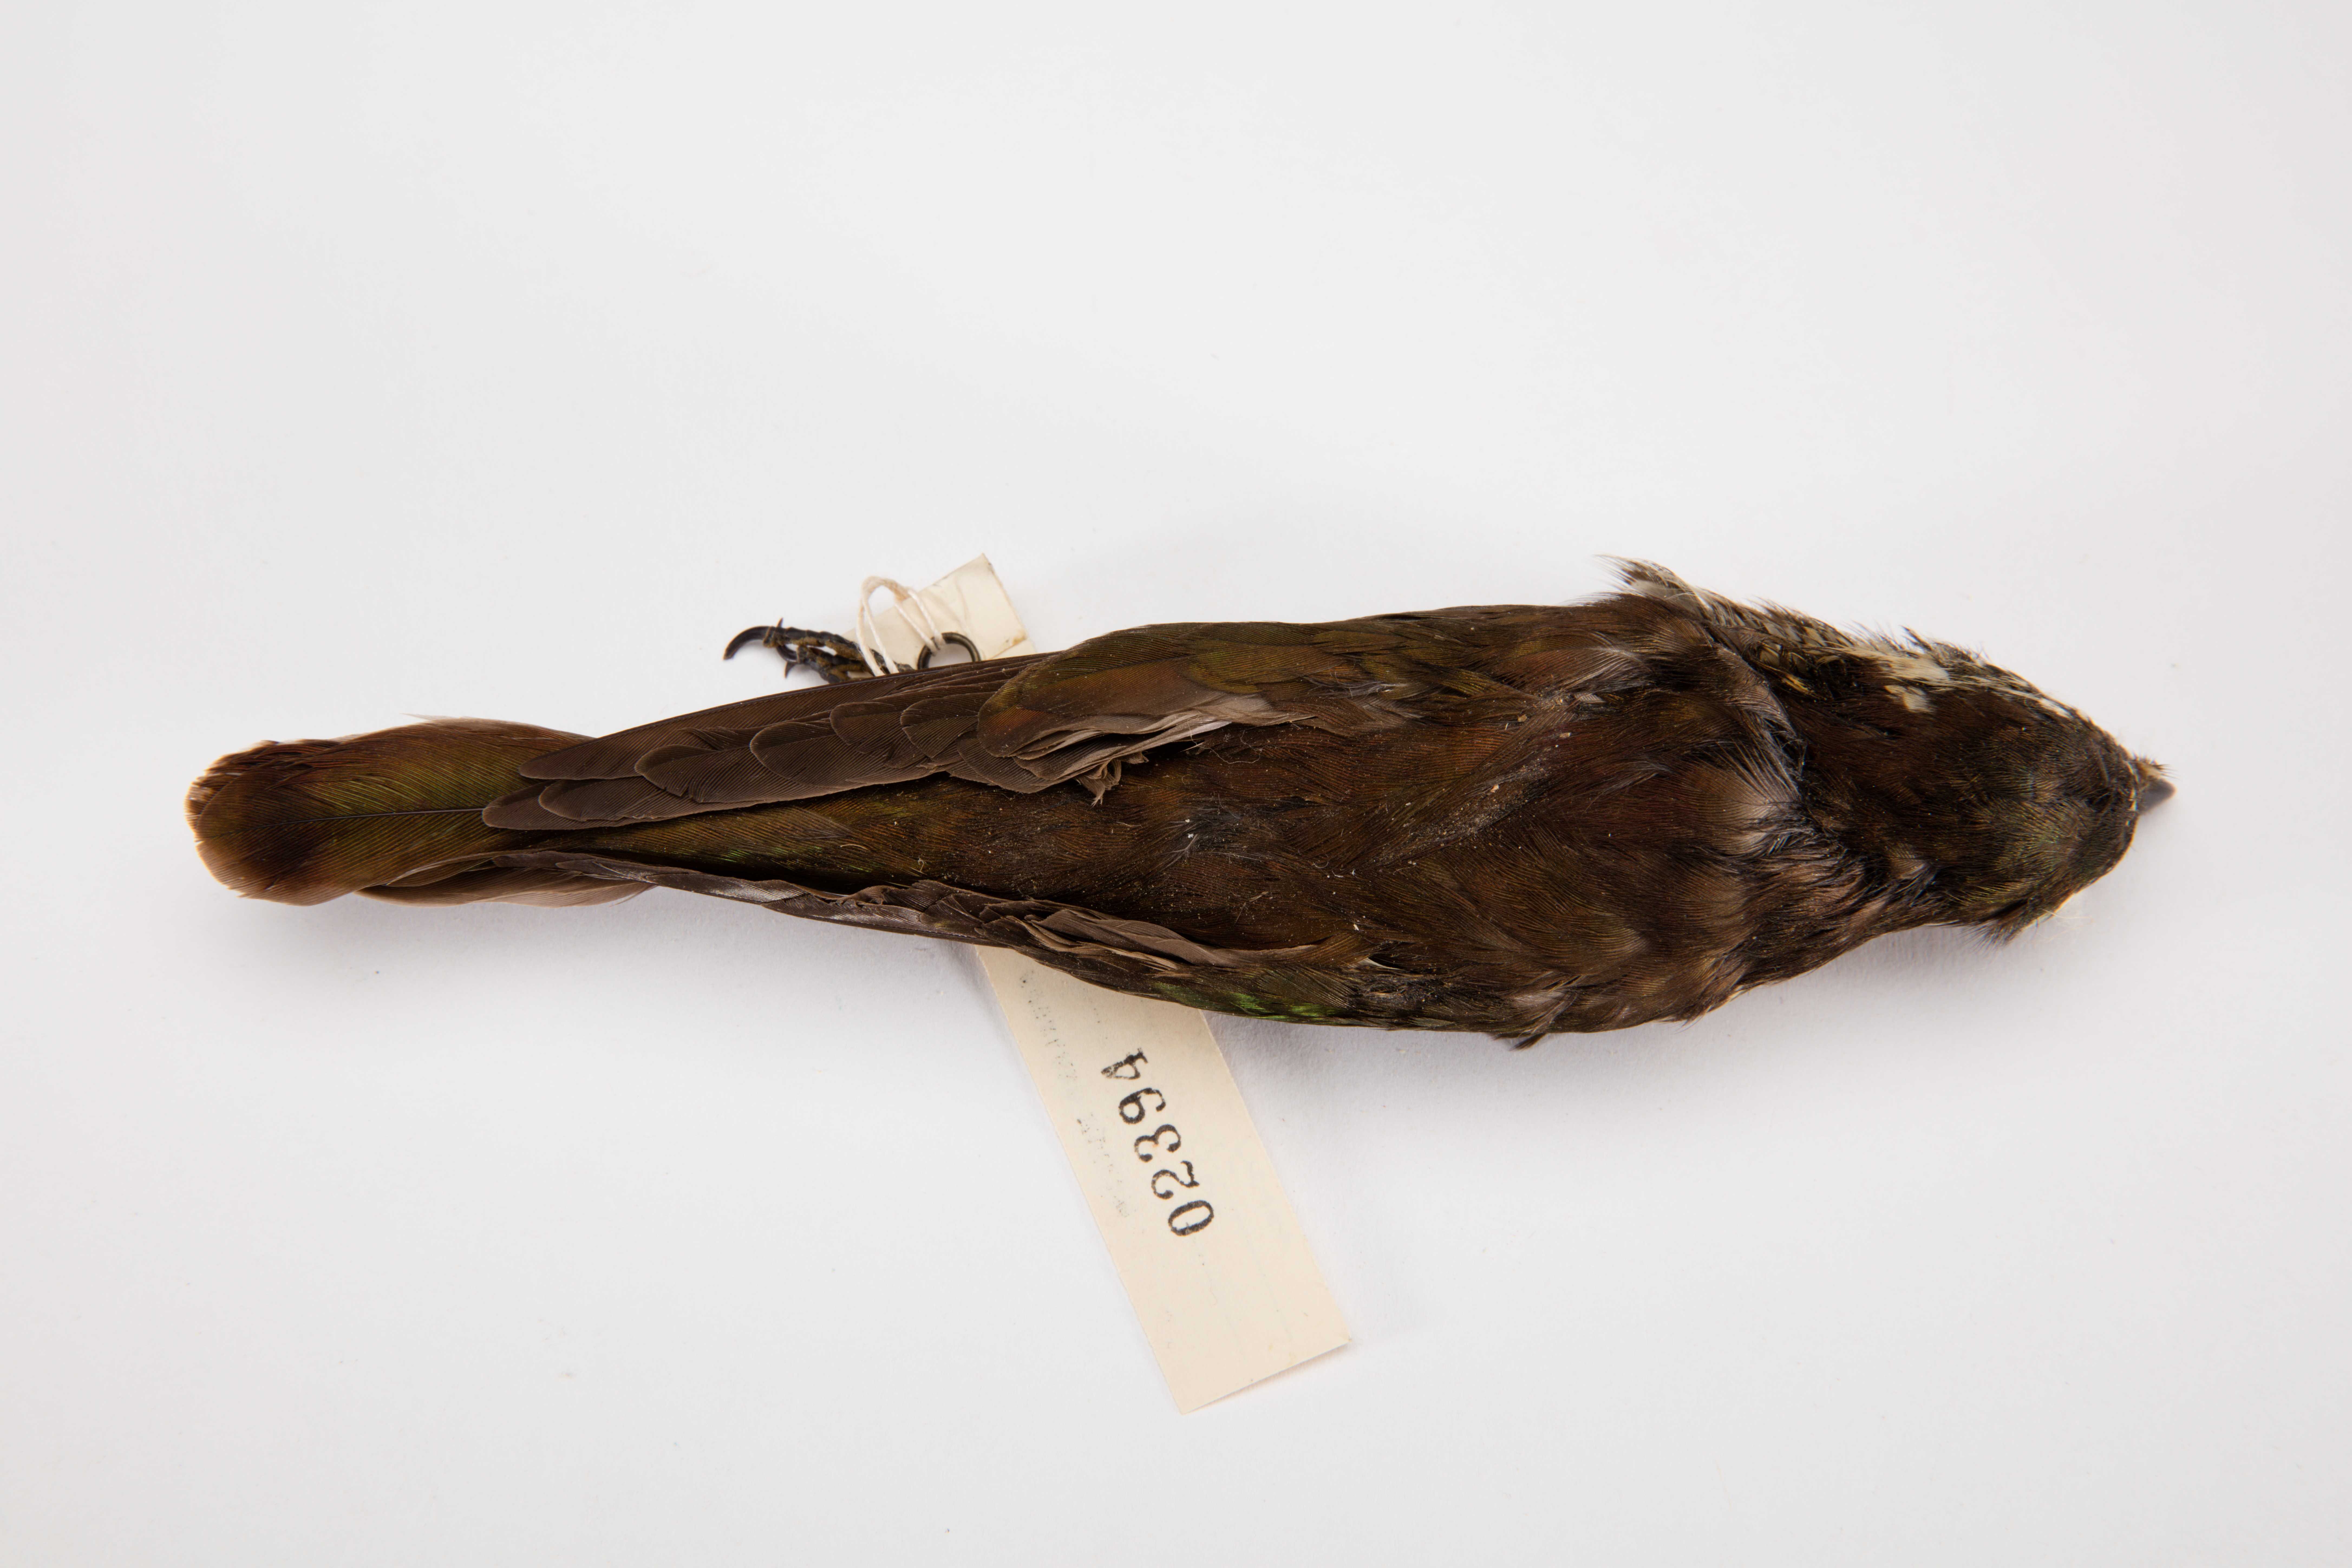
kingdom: Animalia
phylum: Chordata
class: Aves
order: Cuculiformes
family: Cuculidae
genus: Chrysococcyx
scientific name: Chrysococcyx lucidus
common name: Shining bronze cuckoo
